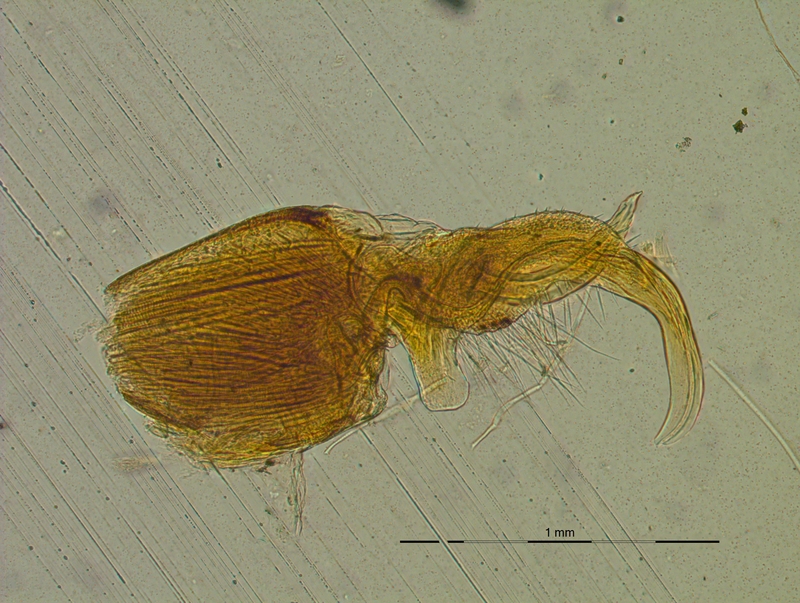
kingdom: Animalia
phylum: Arthropoda
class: Diplopoda
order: Polydesmida
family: Xystodesmidae
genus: Harpaphe
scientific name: Harpaphe cummingsiensis
